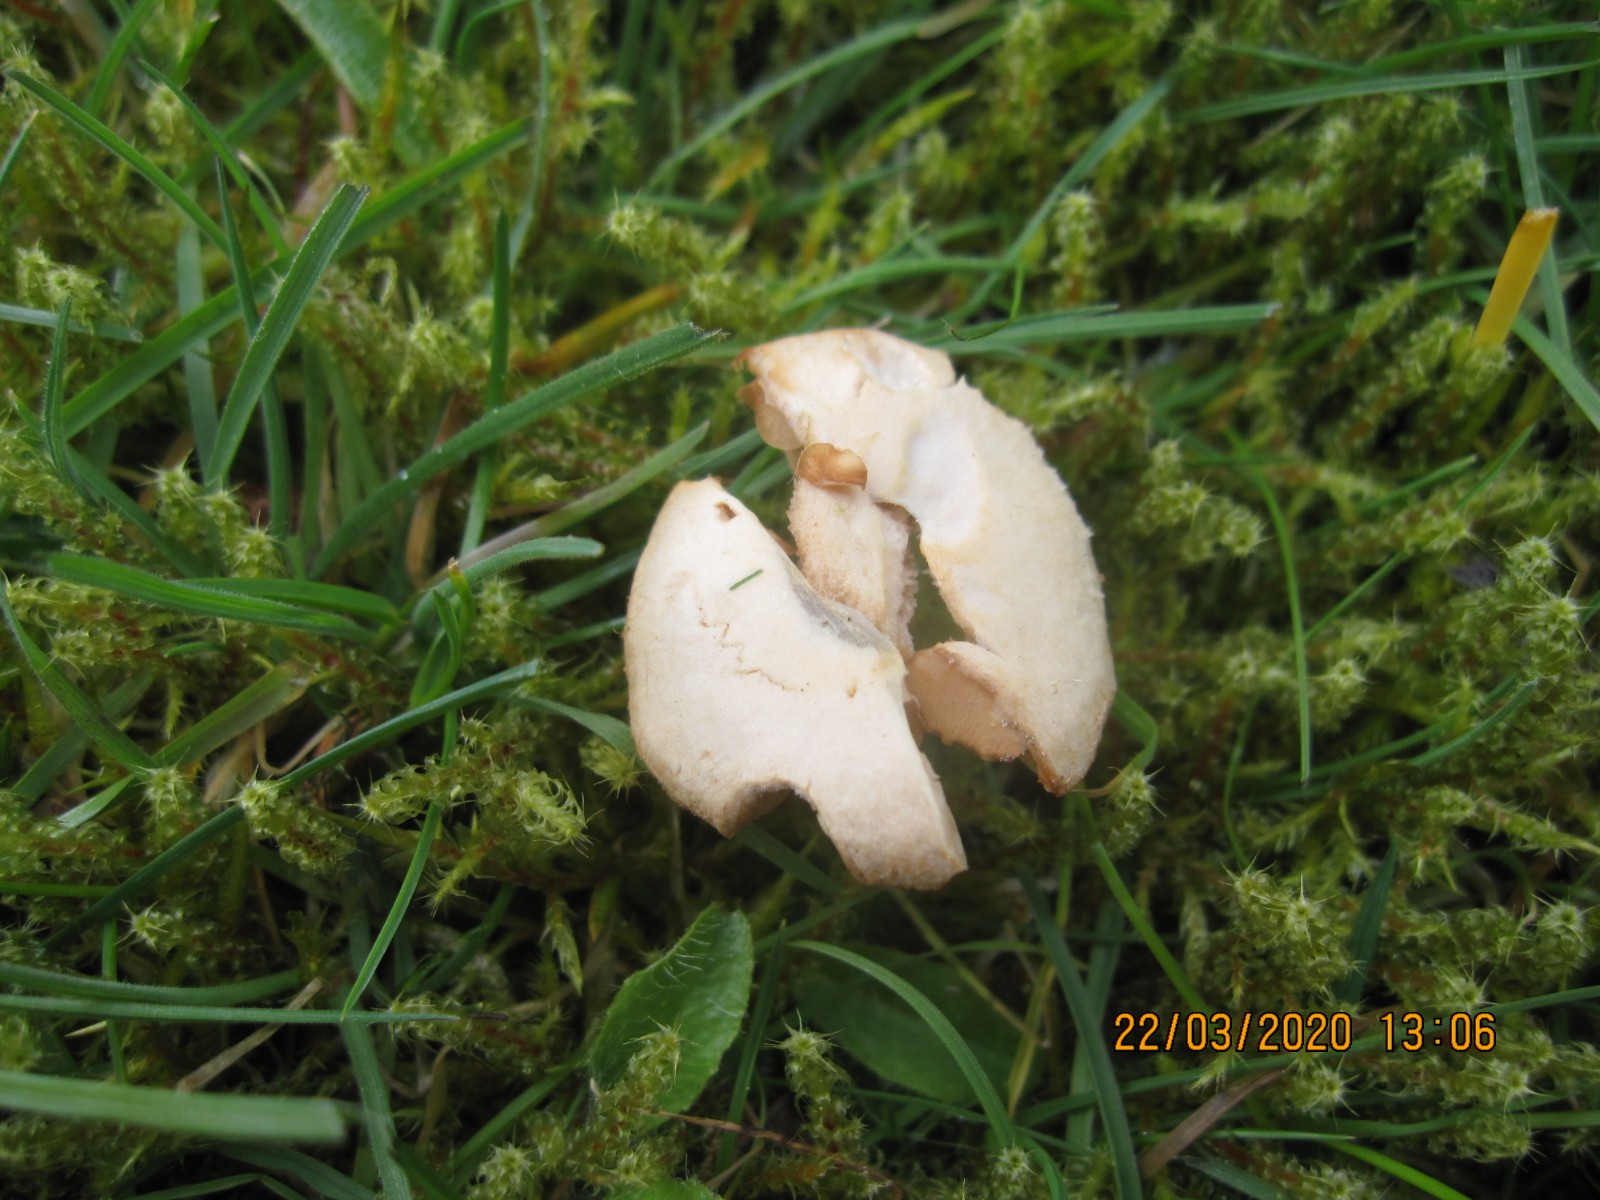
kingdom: Fungi
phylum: Basidiomycota
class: Agaricomycetes
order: Agaricales
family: Tubariaceae
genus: Tubaria
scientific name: Tubaria furfuracea
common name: kliddet fnughat
